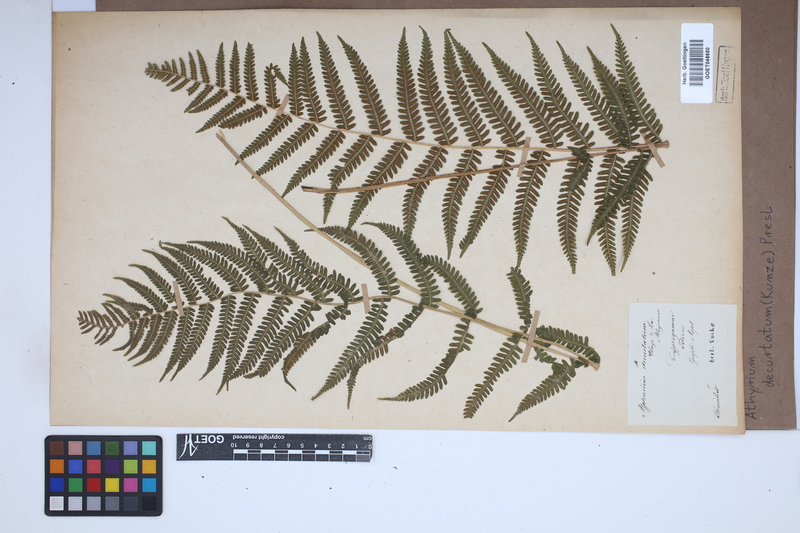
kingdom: Plantae
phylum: Tracheophyta
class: Polypodiopsida
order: Polypodiales
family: Thelypteridaceae
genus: Amauropelta
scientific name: Amauropelta decurtata
